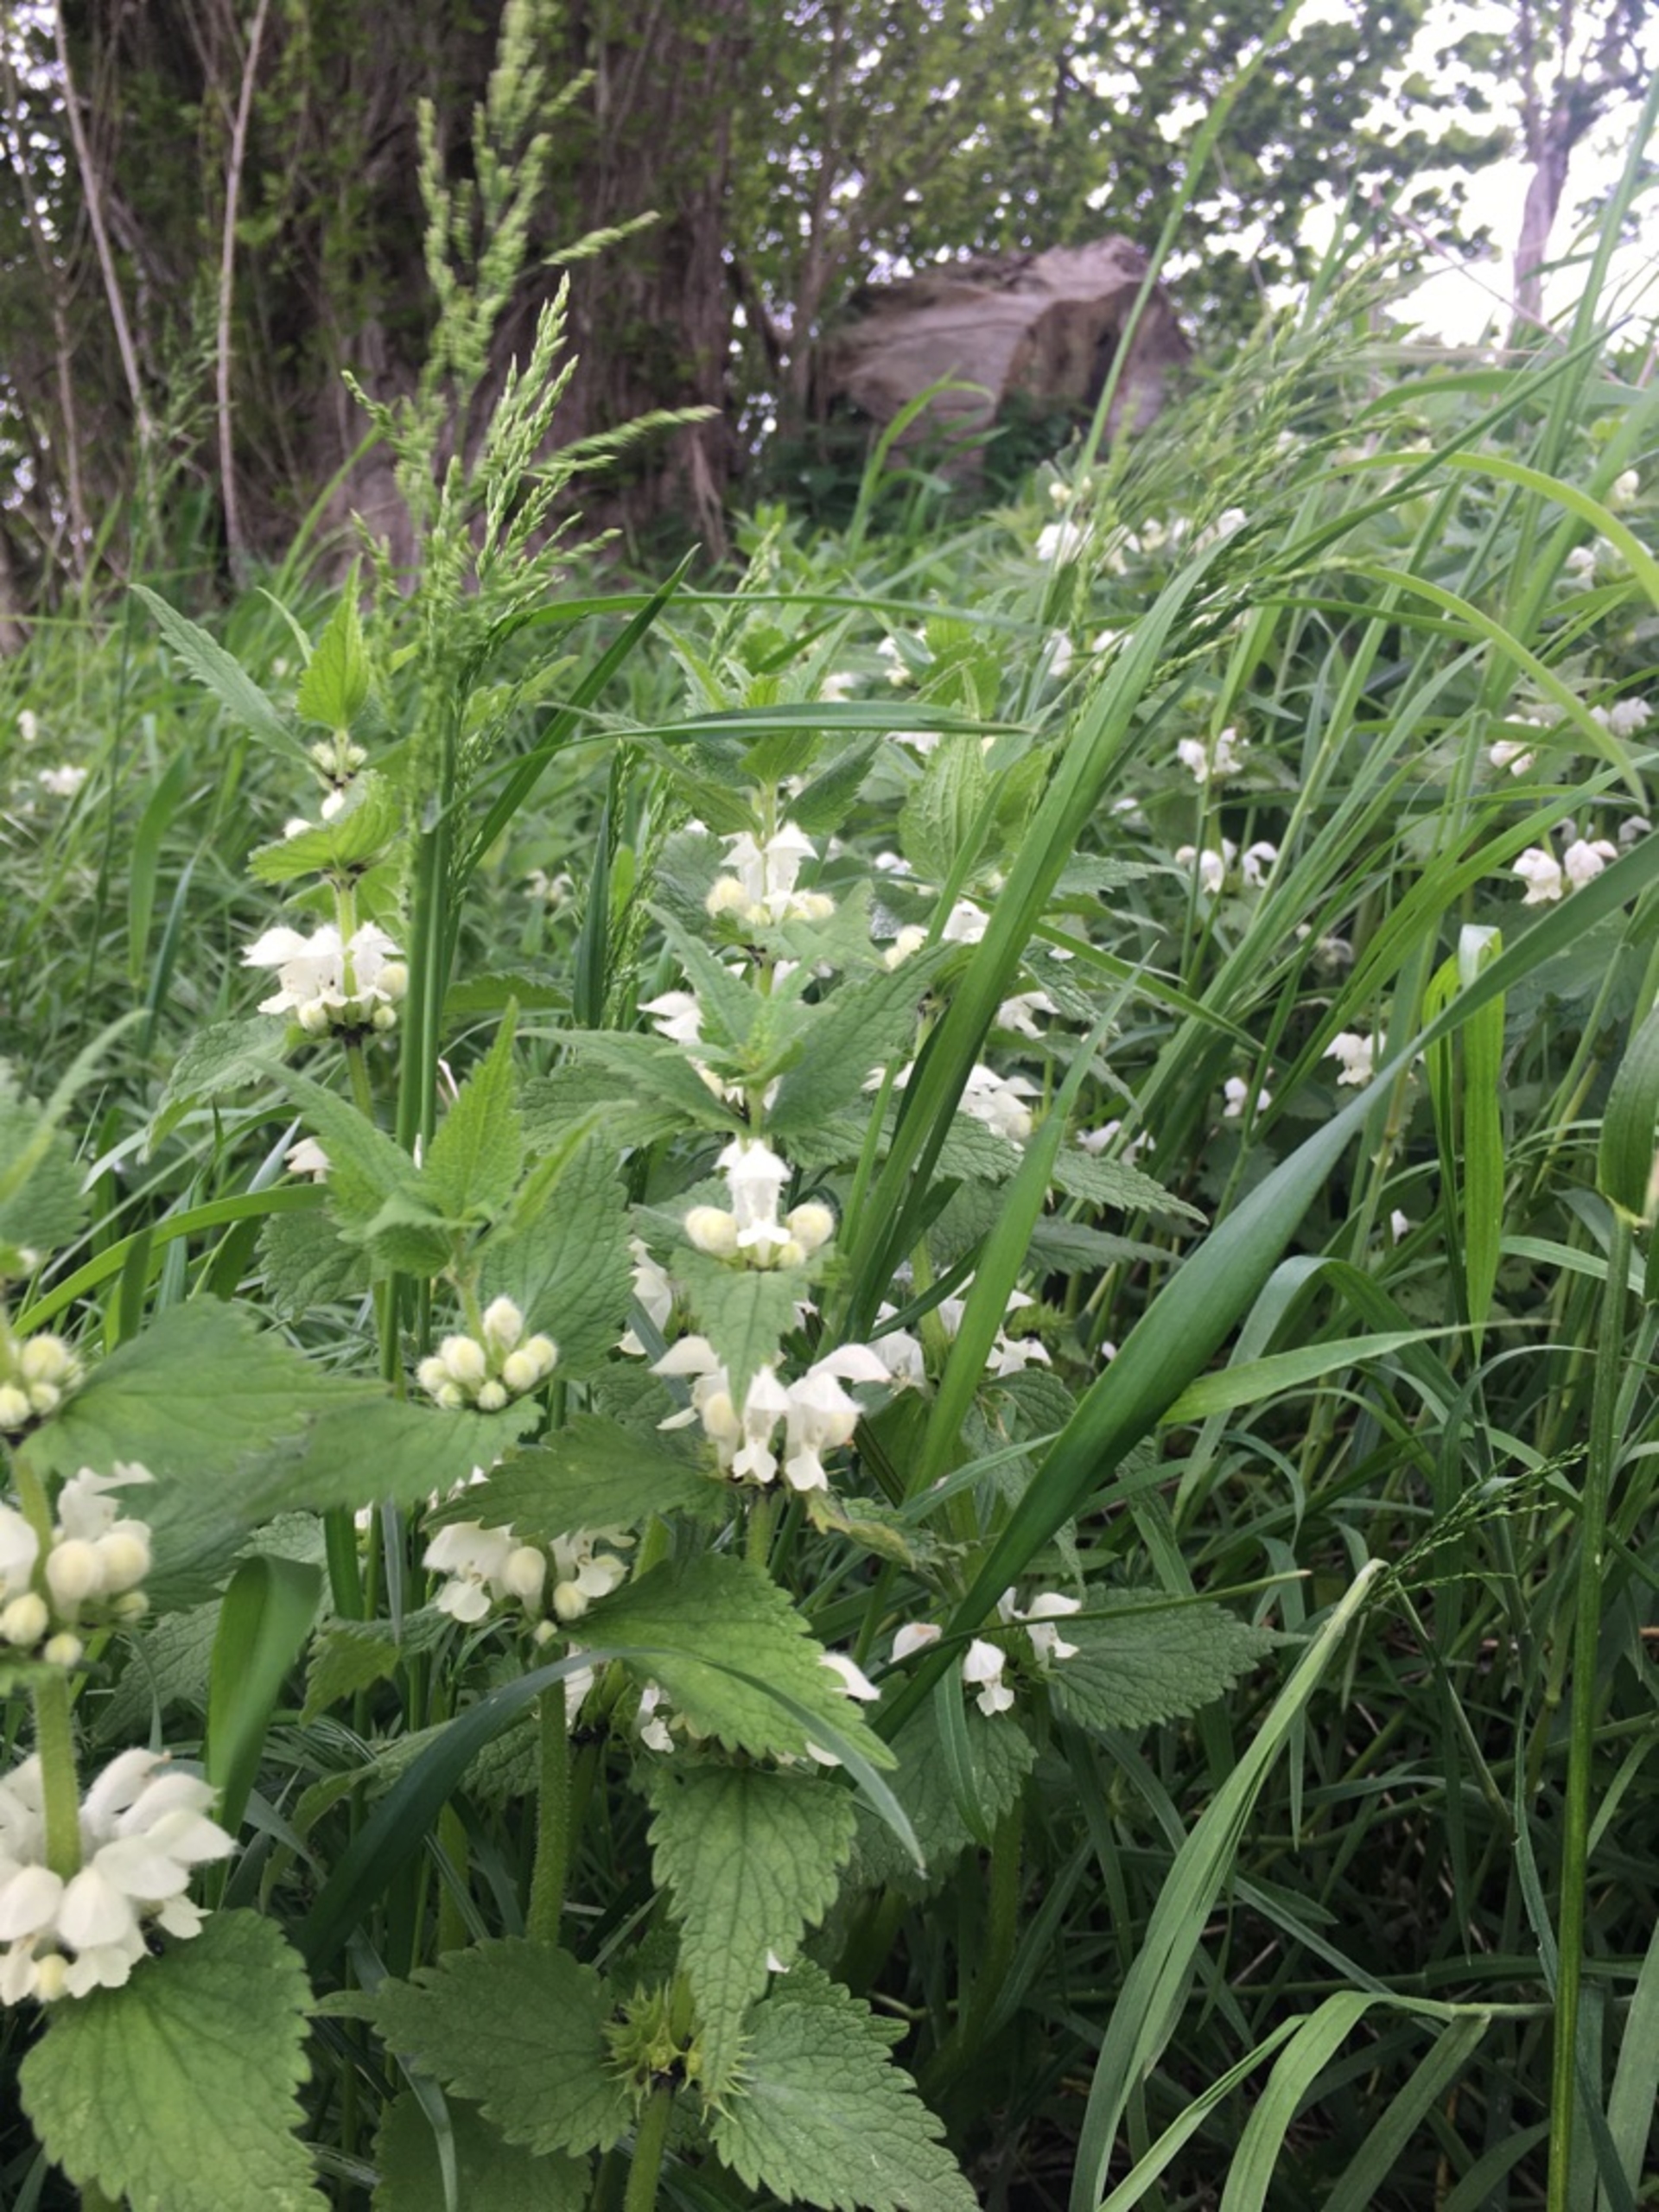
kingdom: Plantae
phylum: Tracheophyta
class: Magnoliopsida
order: Lamiales
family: Lamiaceae
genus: Lamium
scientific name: Lamium album
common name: Døvnælde
